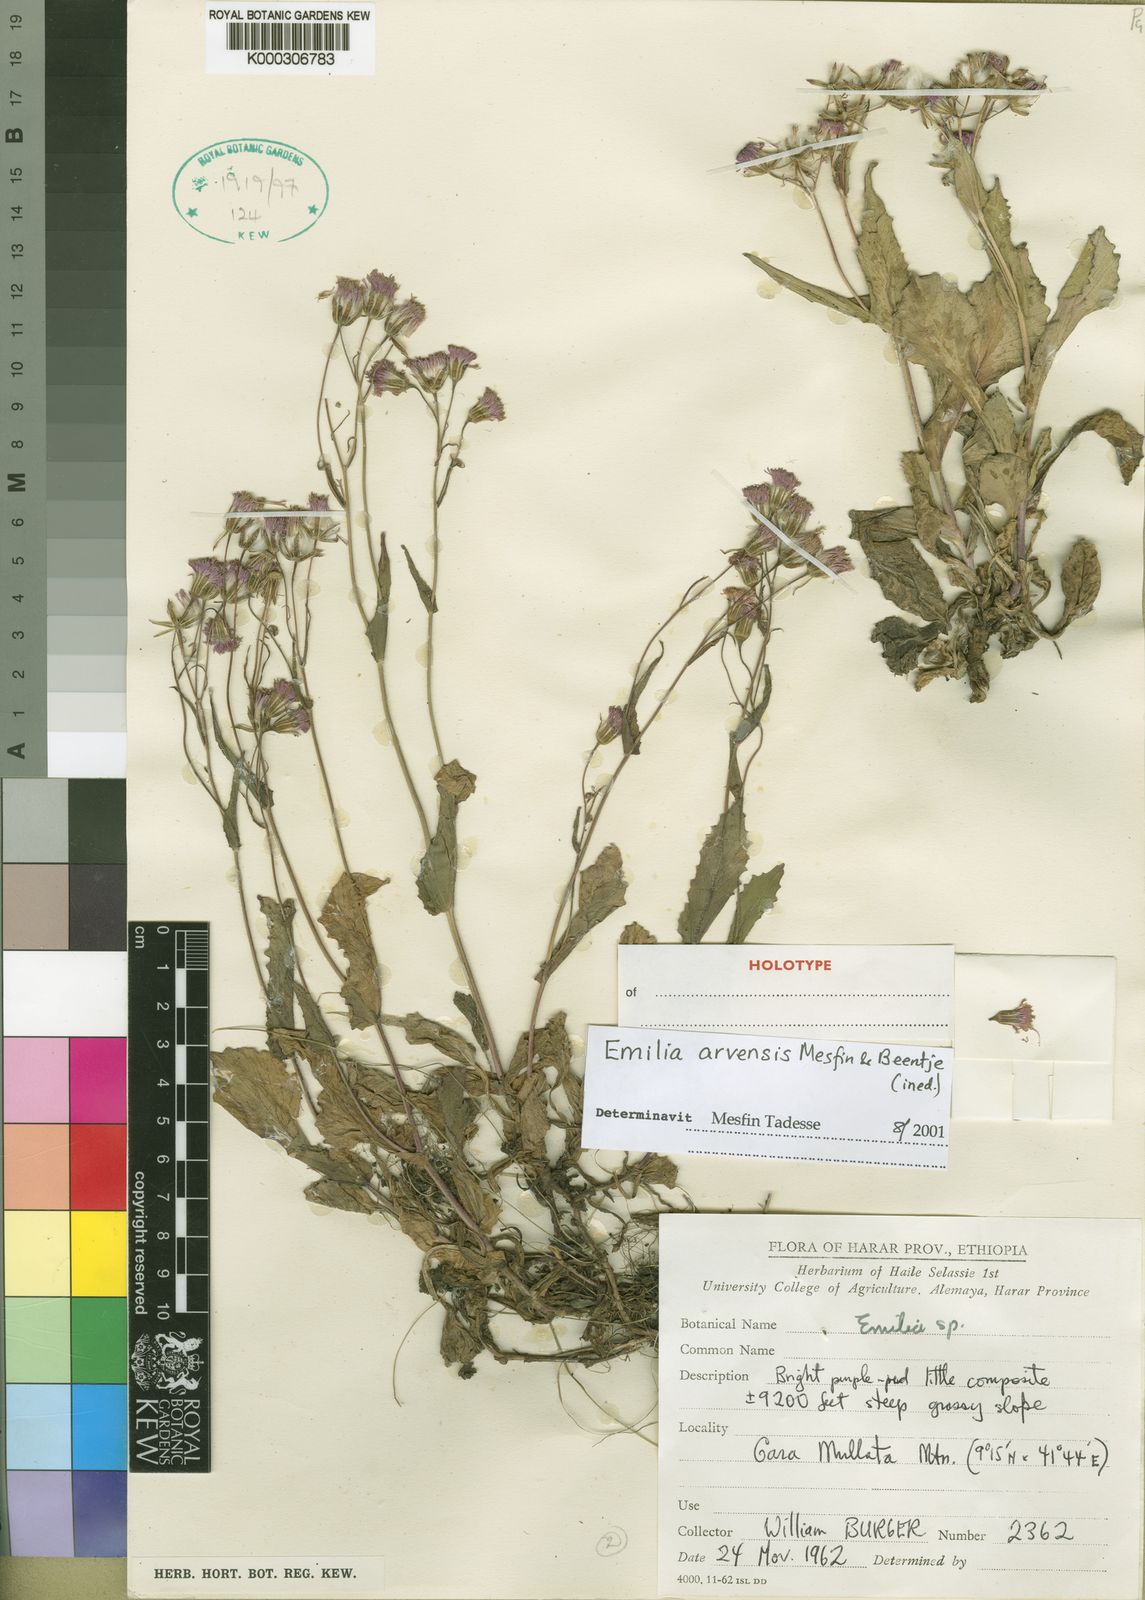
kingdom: Plantae
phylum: Tracheophyta
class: Magnoliopsida
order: Asterales
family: Asteraceae
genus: Emilia
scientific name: Emilia arvensis
